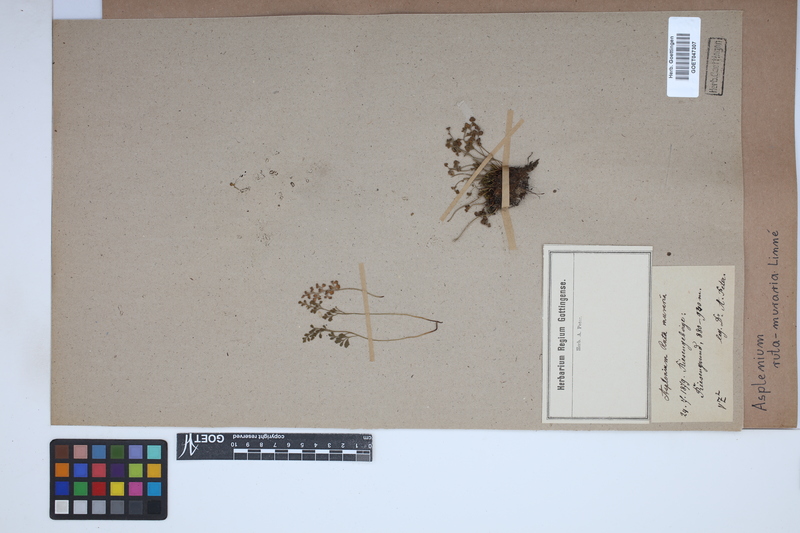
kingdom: Plantae
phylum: Tracheophyta
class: Polypodiopsida
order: Polypodiales
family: Aspleniaceae
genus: Asplenium
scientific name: Asplenium ruta-muraria
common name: Wall-rue
